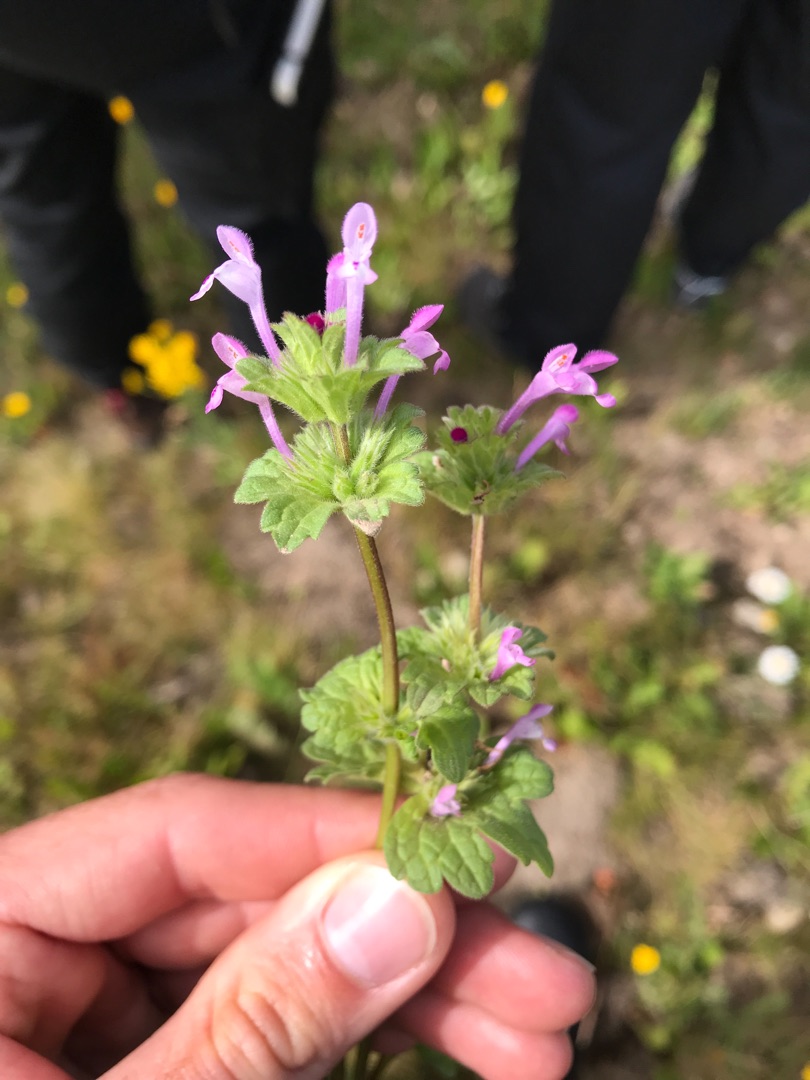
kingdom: Plantae
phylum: Tracheophyta
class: Magnoliopsida
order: Lamiales
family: Lamiaceae
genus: Lamium
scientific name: Lamium amplexicaule
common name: Liden tvetand
